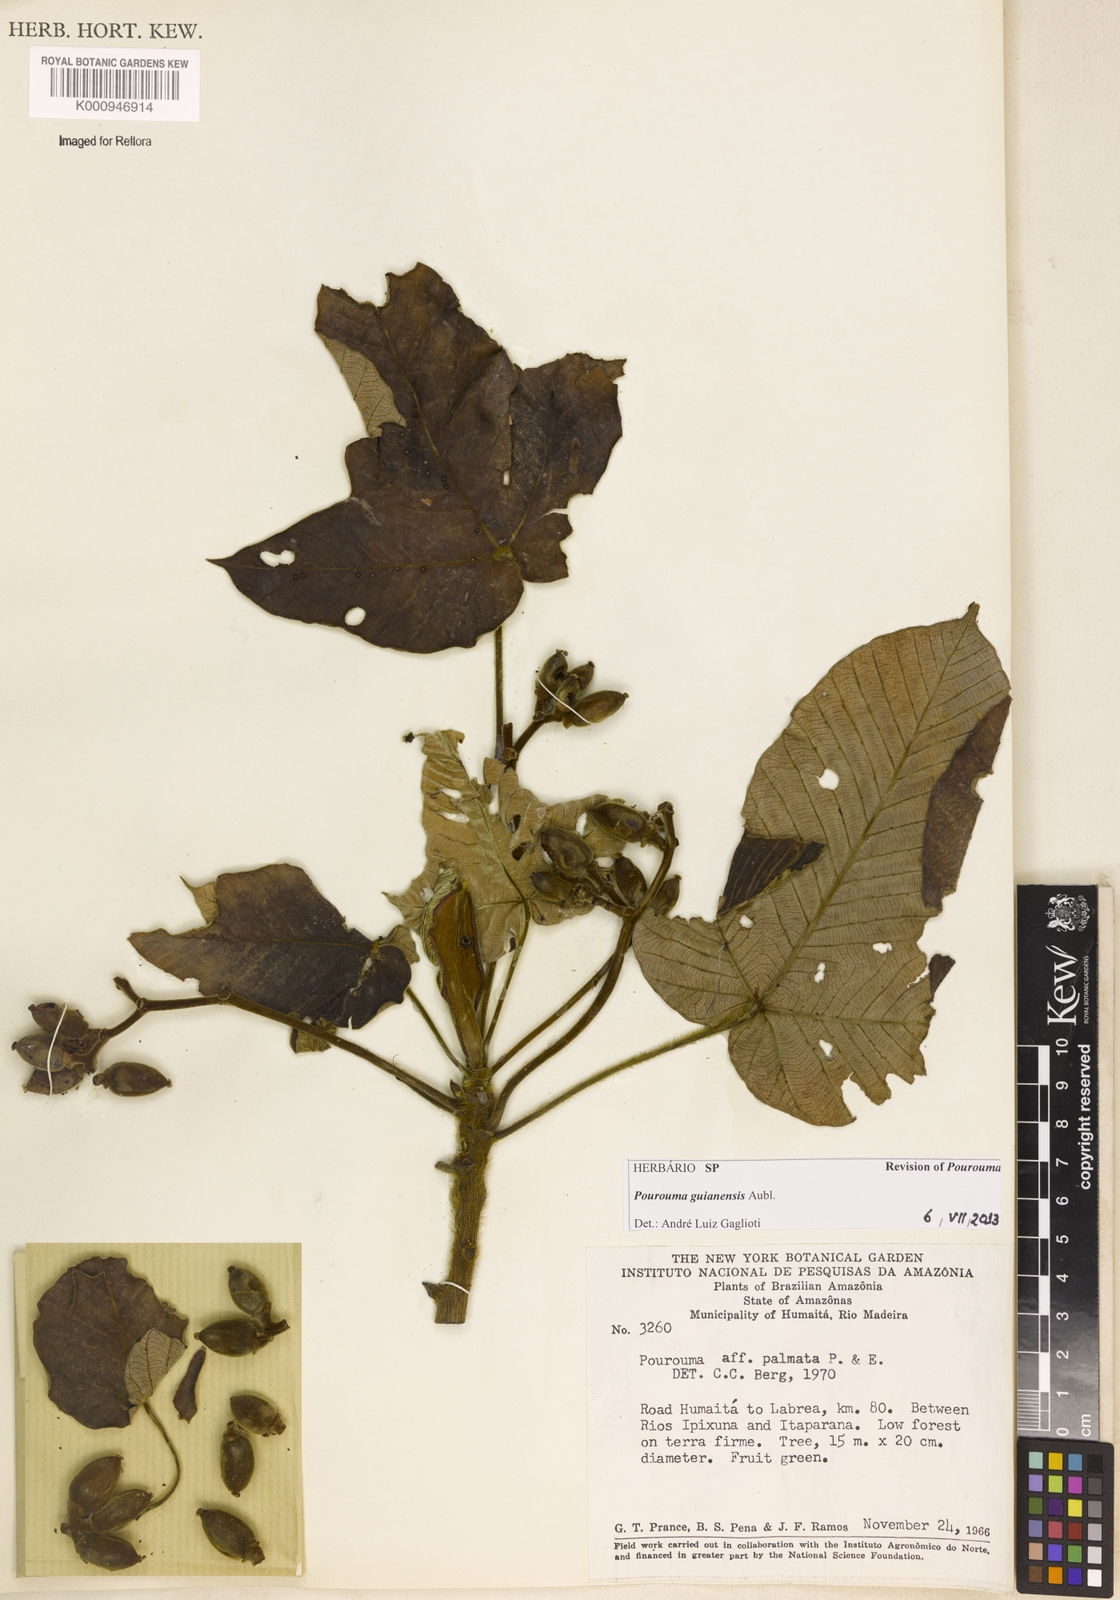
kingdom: Plantae
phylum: Tracheophyta
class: Magnoliopsida
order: Rosales
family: Urticaceae
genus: Pourouma
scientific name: Pourouma guianensis
